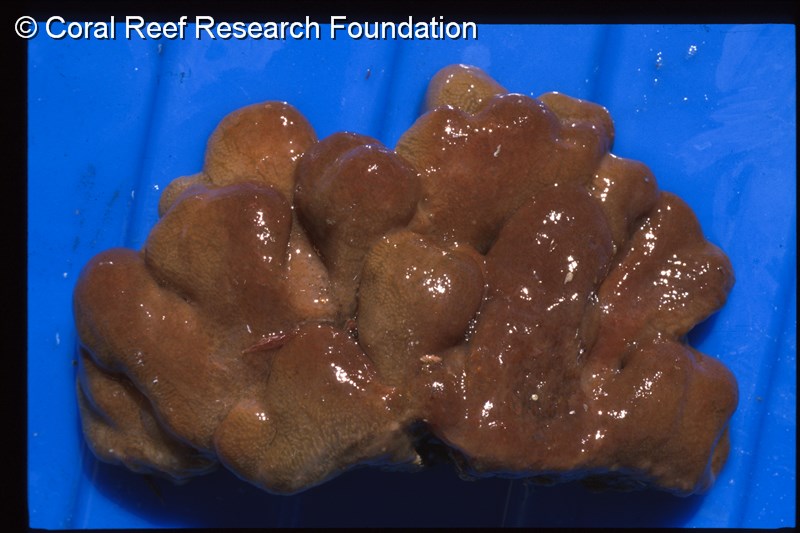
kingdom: Animalia
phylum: Chordata
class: Ascidiacea
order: Aplousobranchia
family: Polyclinidae
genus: Synoicum
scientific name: Synoicum
